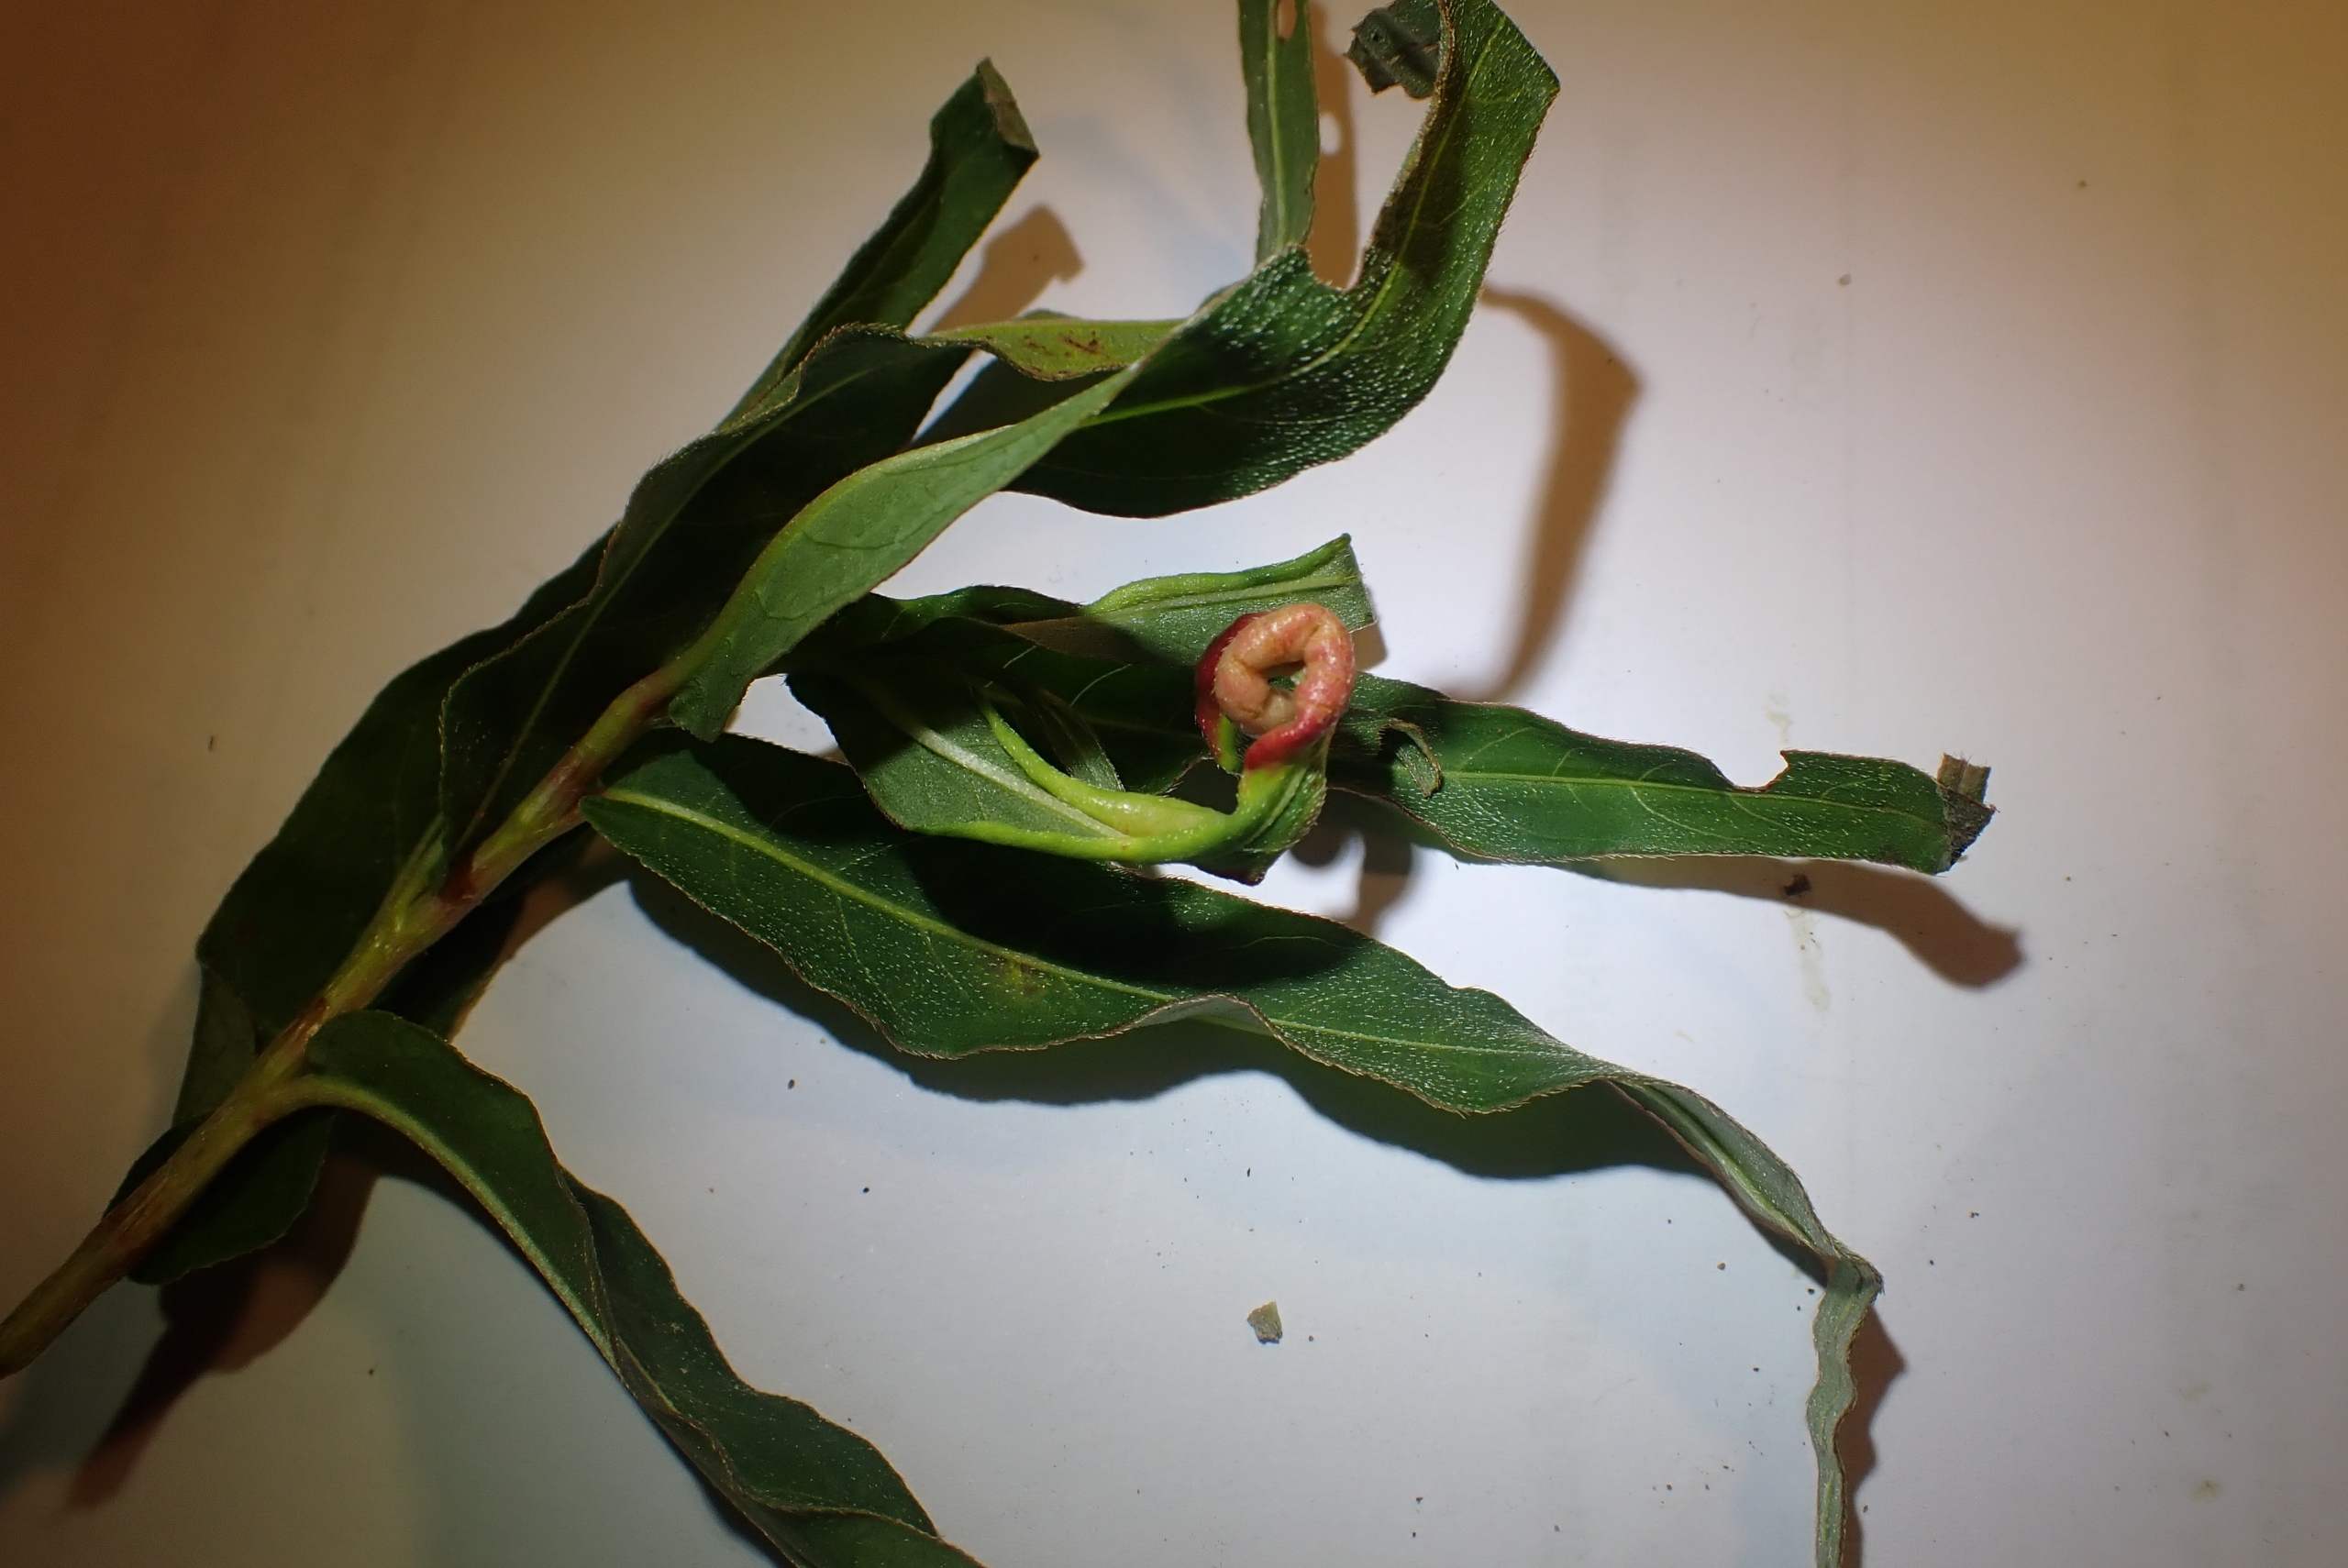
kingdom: Animalia
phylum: Arthropoda
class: Insecta
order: Diptera
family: Cecidomyiidae
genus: Wachtliella
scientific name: Wachtliella persicariae
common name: Pileurtgalmyg
